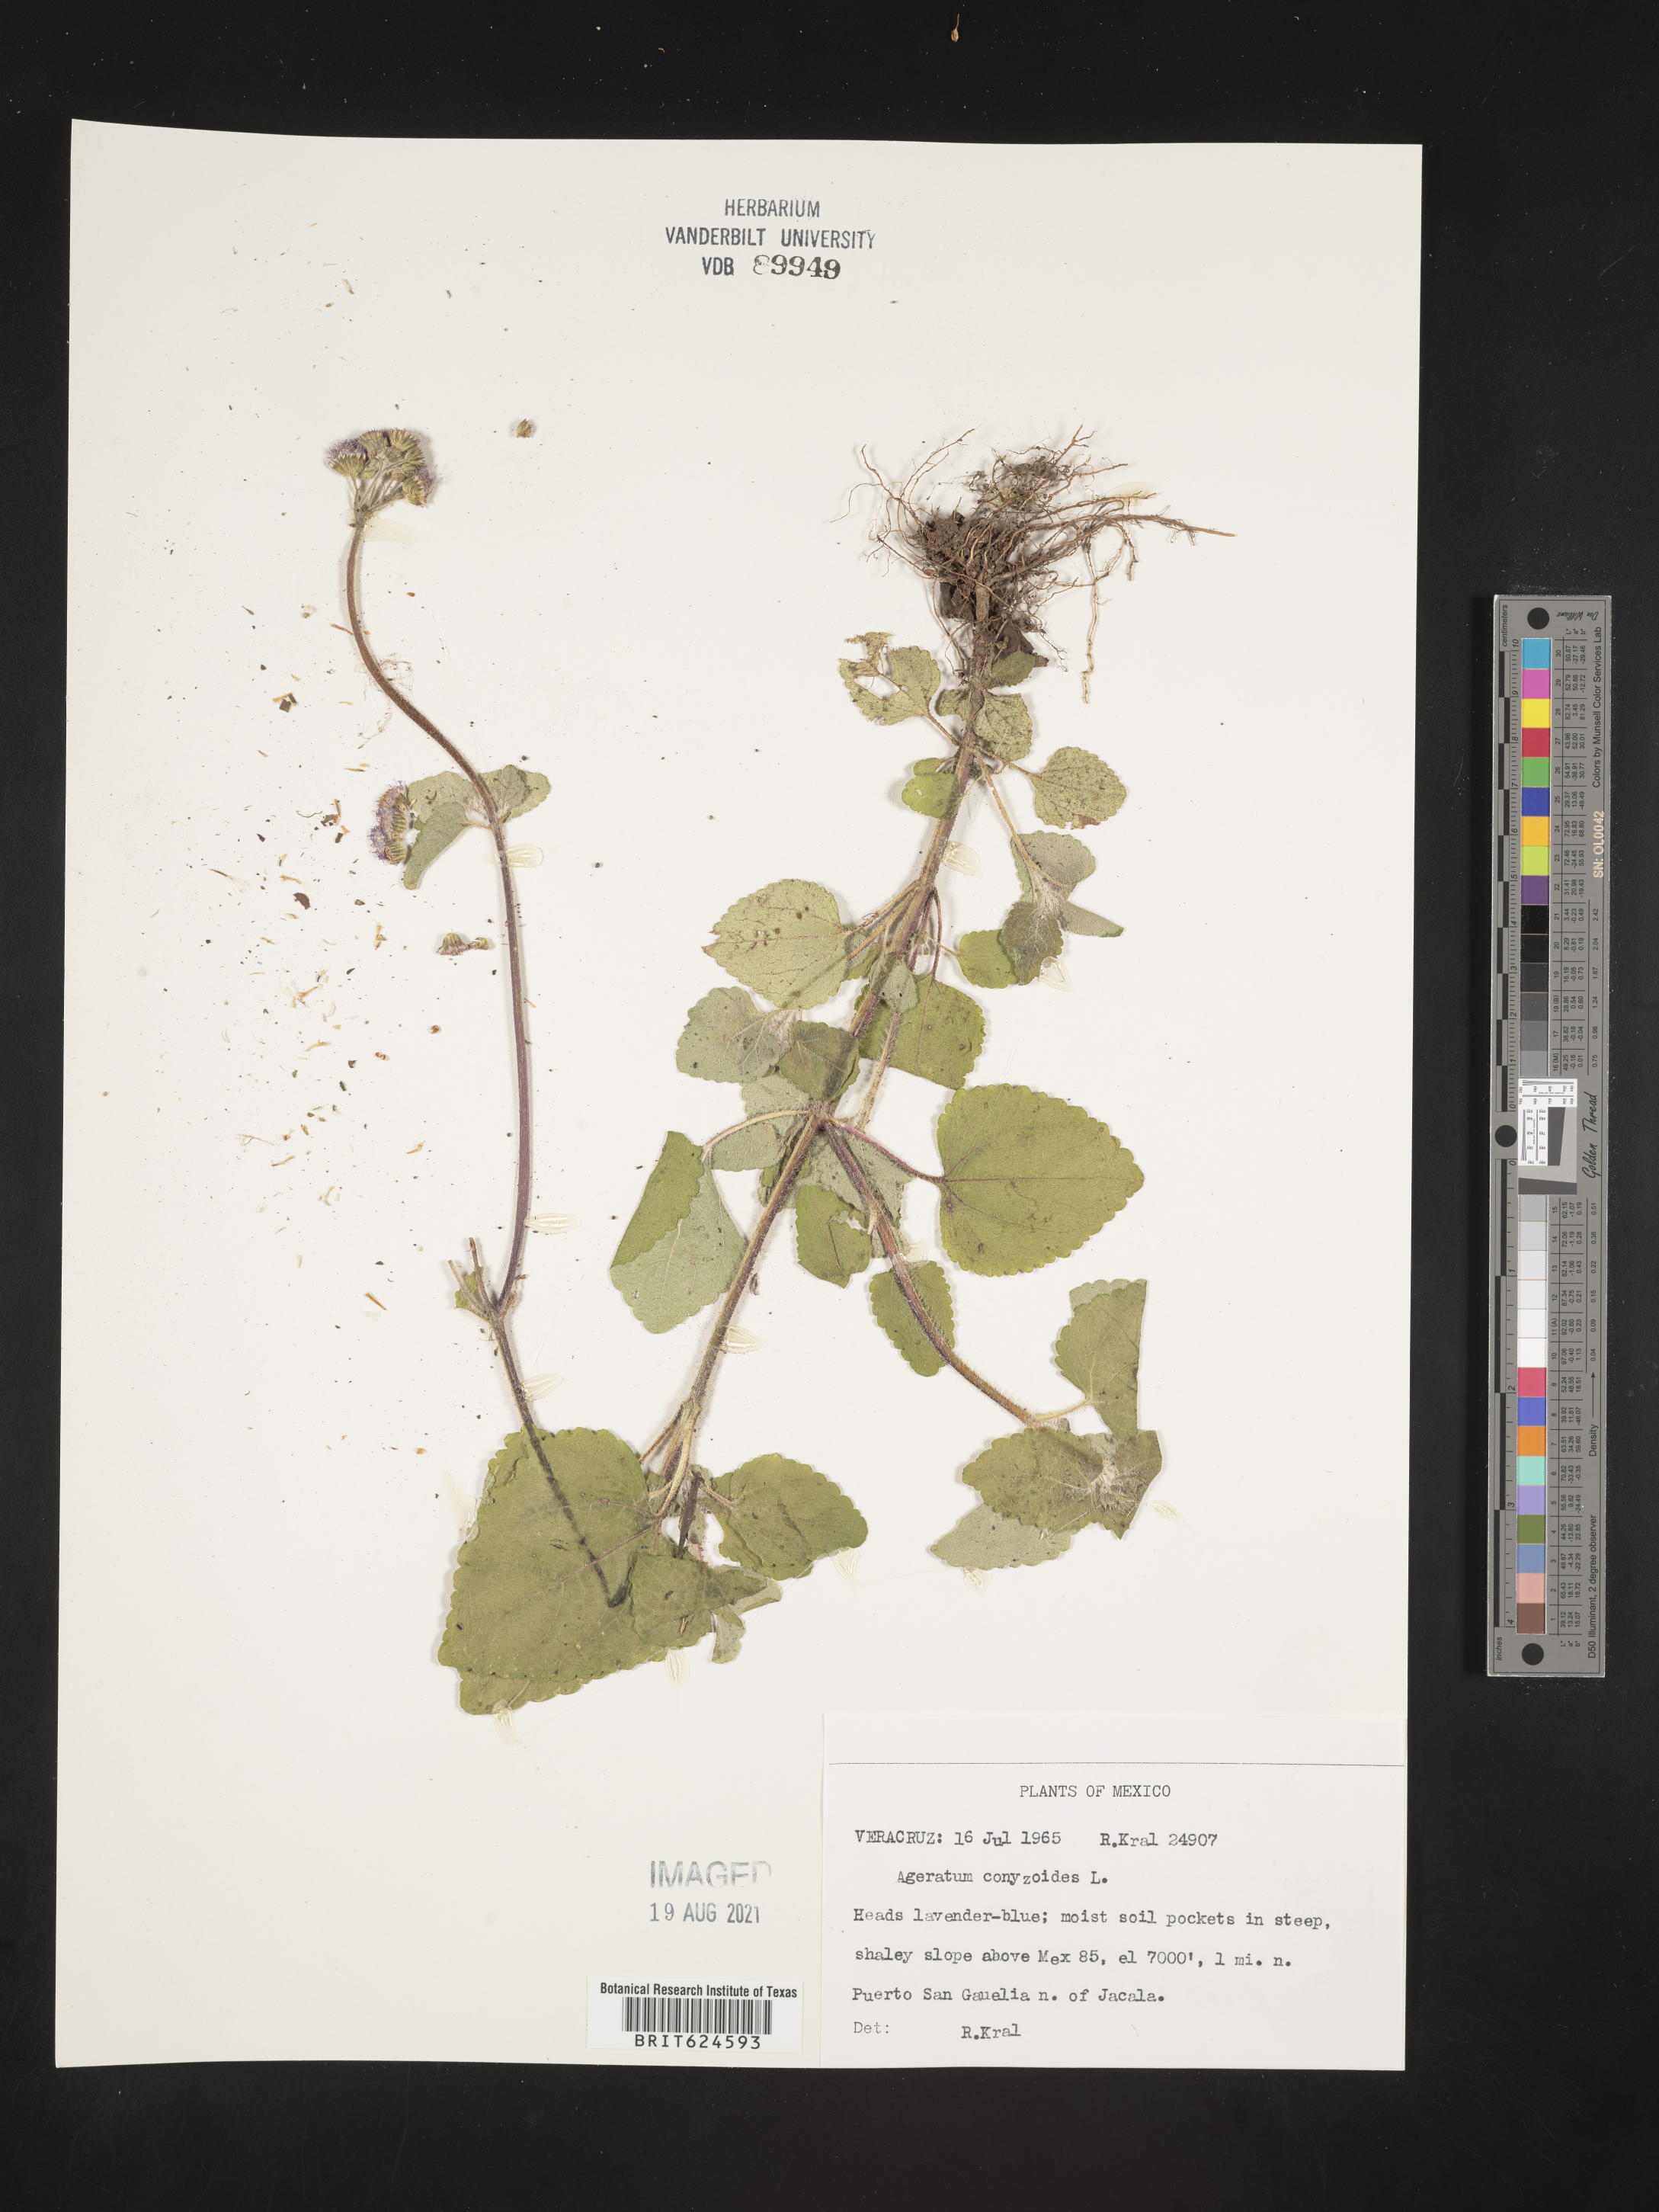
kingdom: Plantae
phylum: Tracheophyta
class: Magnoliopsida
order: Asterales
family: Asteraceae
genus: Ageratum
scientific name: Ageratum
